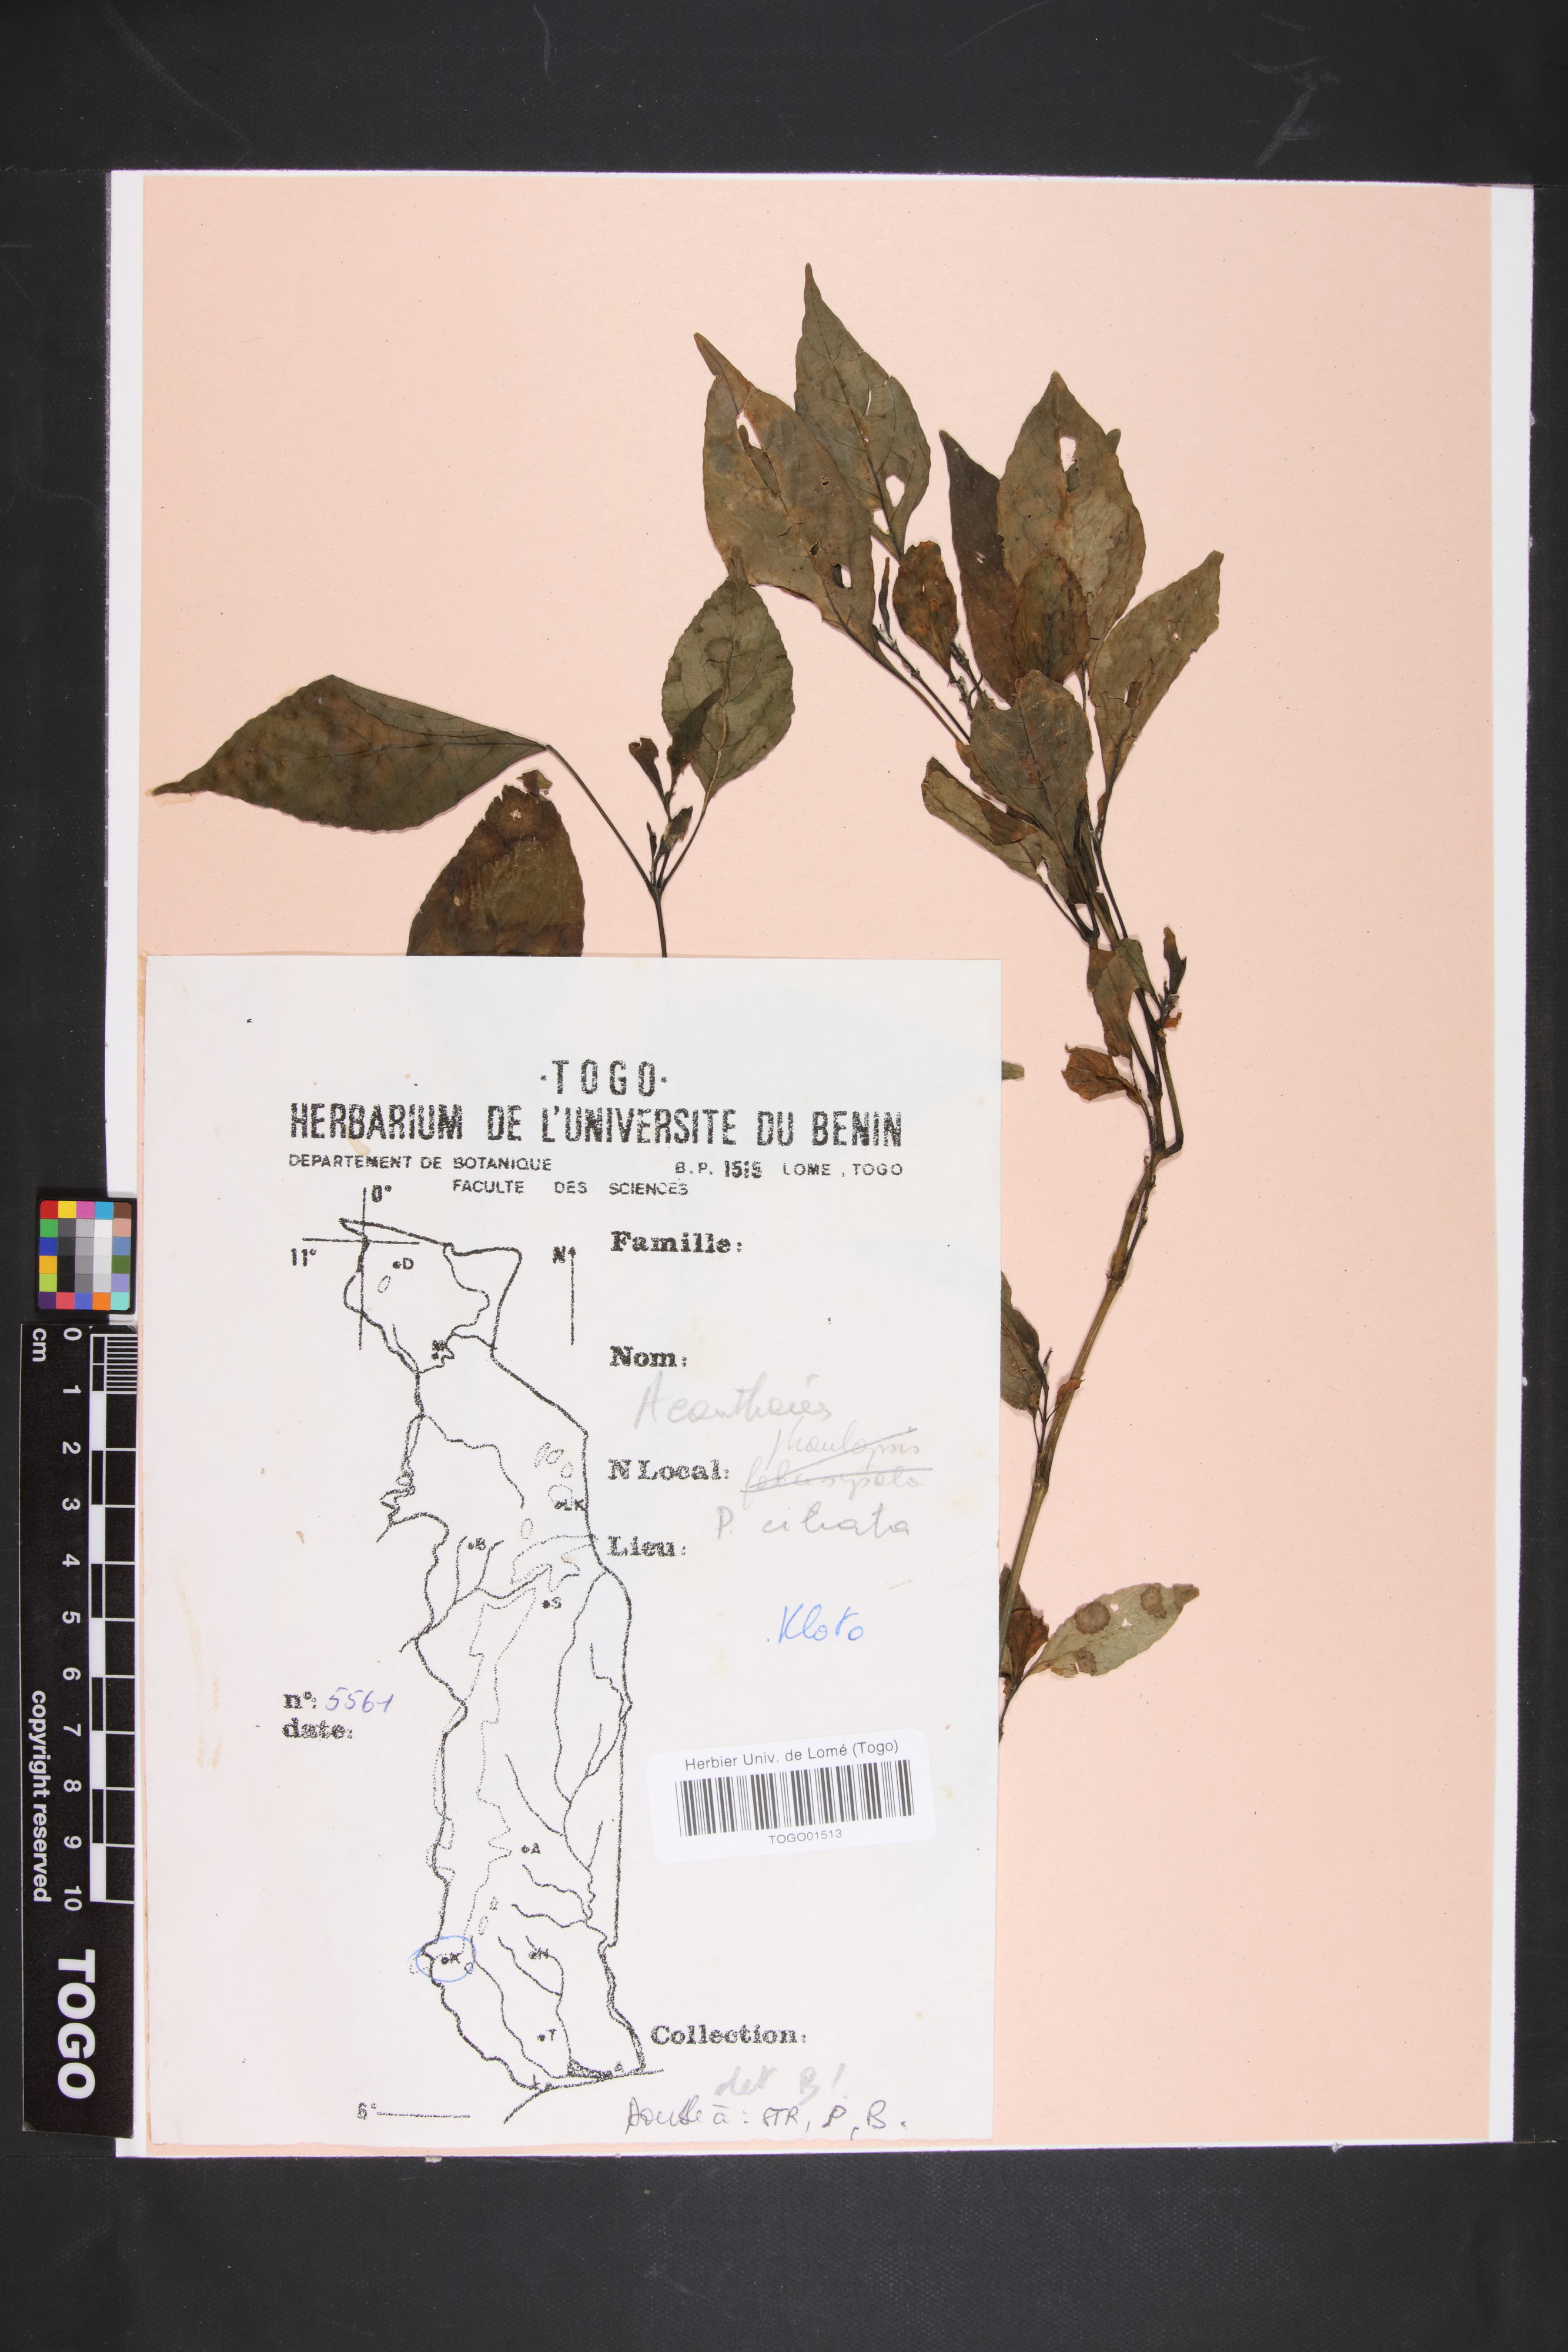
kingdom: Plantae
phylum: Tracheophyta
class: Magnoliopsida
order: Lamiales
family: Acanthaceae
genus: Phaulopsis
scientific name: Phaulopsis ciliata
